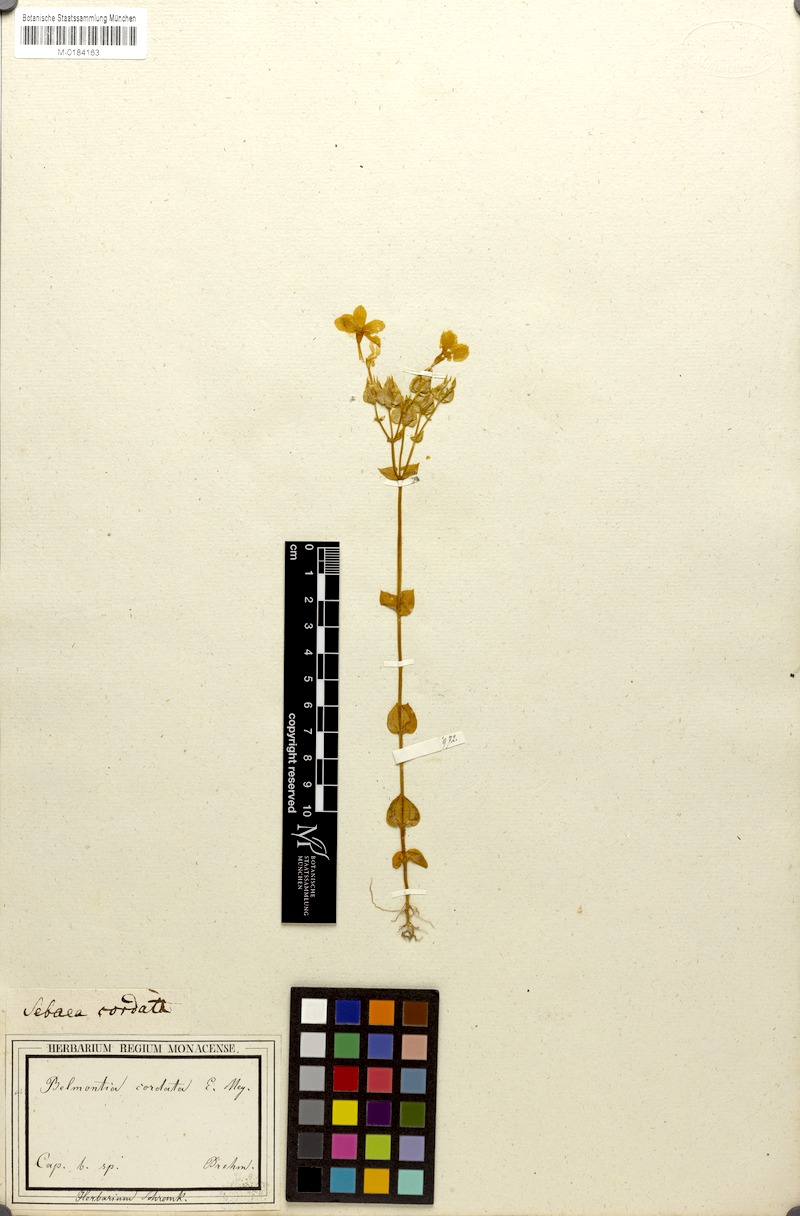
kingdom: Plantae
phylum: Tracheophyta
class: Magnoliopsida
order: Gentianales
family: Gentianaceae
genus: Sebaea
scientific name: Sebaea exacoides
